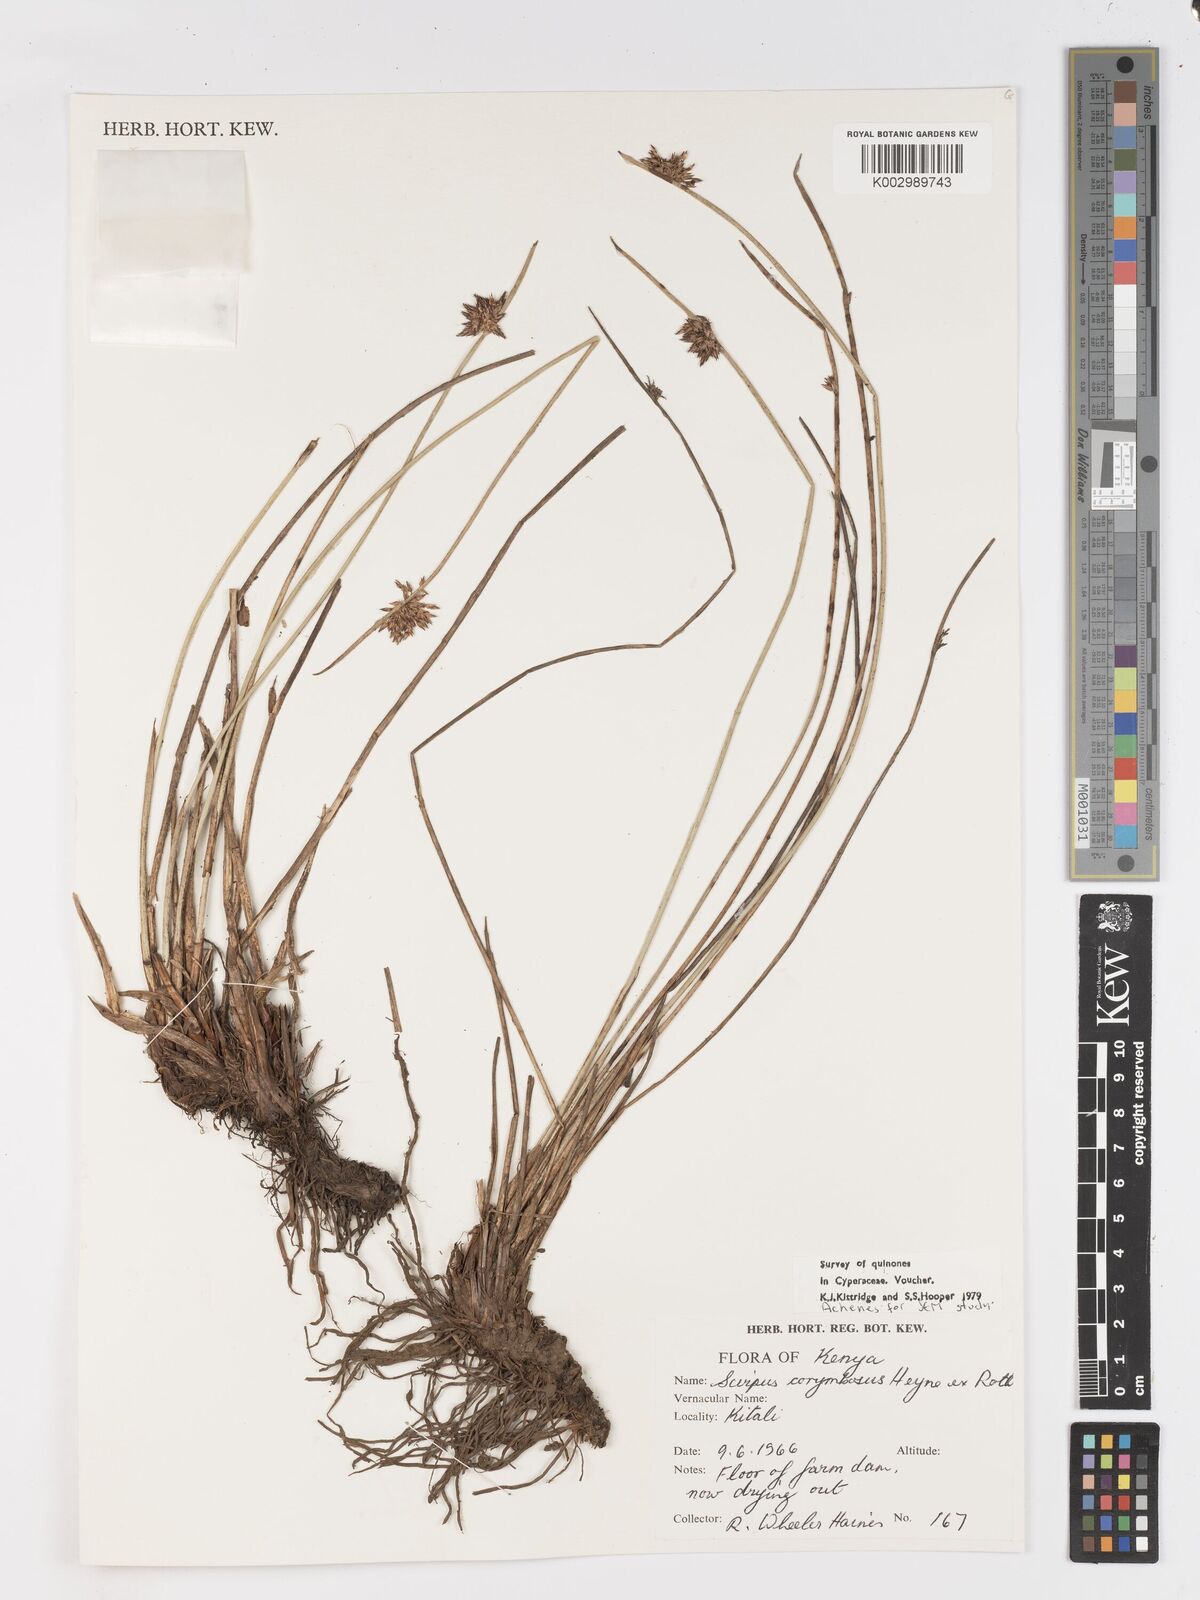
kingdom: Plantae
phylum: Tracheophyta
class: Liliopsida
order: Poales
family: Cyperaceae
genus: Schoenoplectiella
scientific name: Schoenoplectiella confusa
